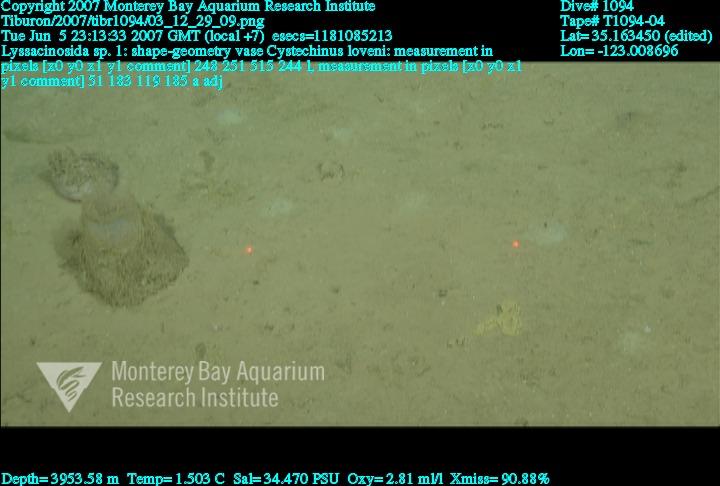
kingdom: Animalia
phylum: Porifera
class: Hexactinellida
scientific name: Hexactinellida
